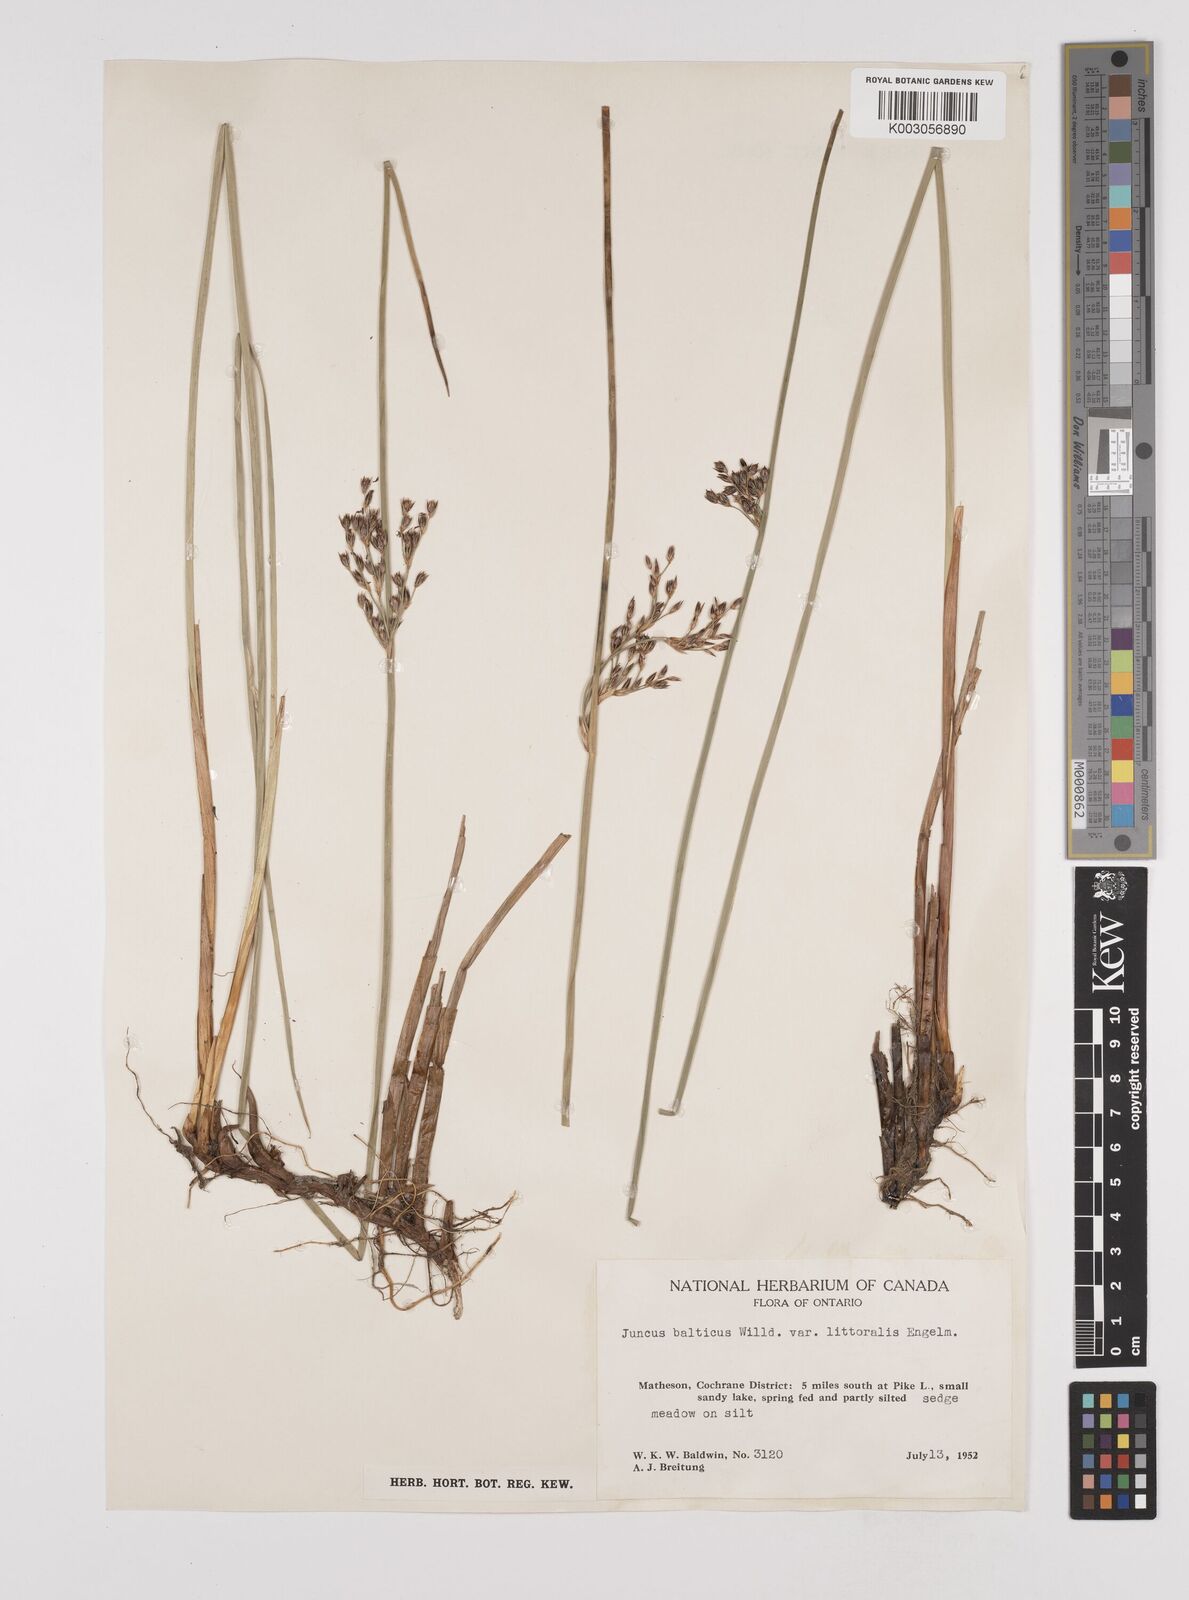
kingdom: Plantae
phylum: Tracheophyta
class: Liliopsida
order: Poales
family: Juncaceae
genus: Juncus
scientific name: Juncus balticus
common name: Baltic rush
